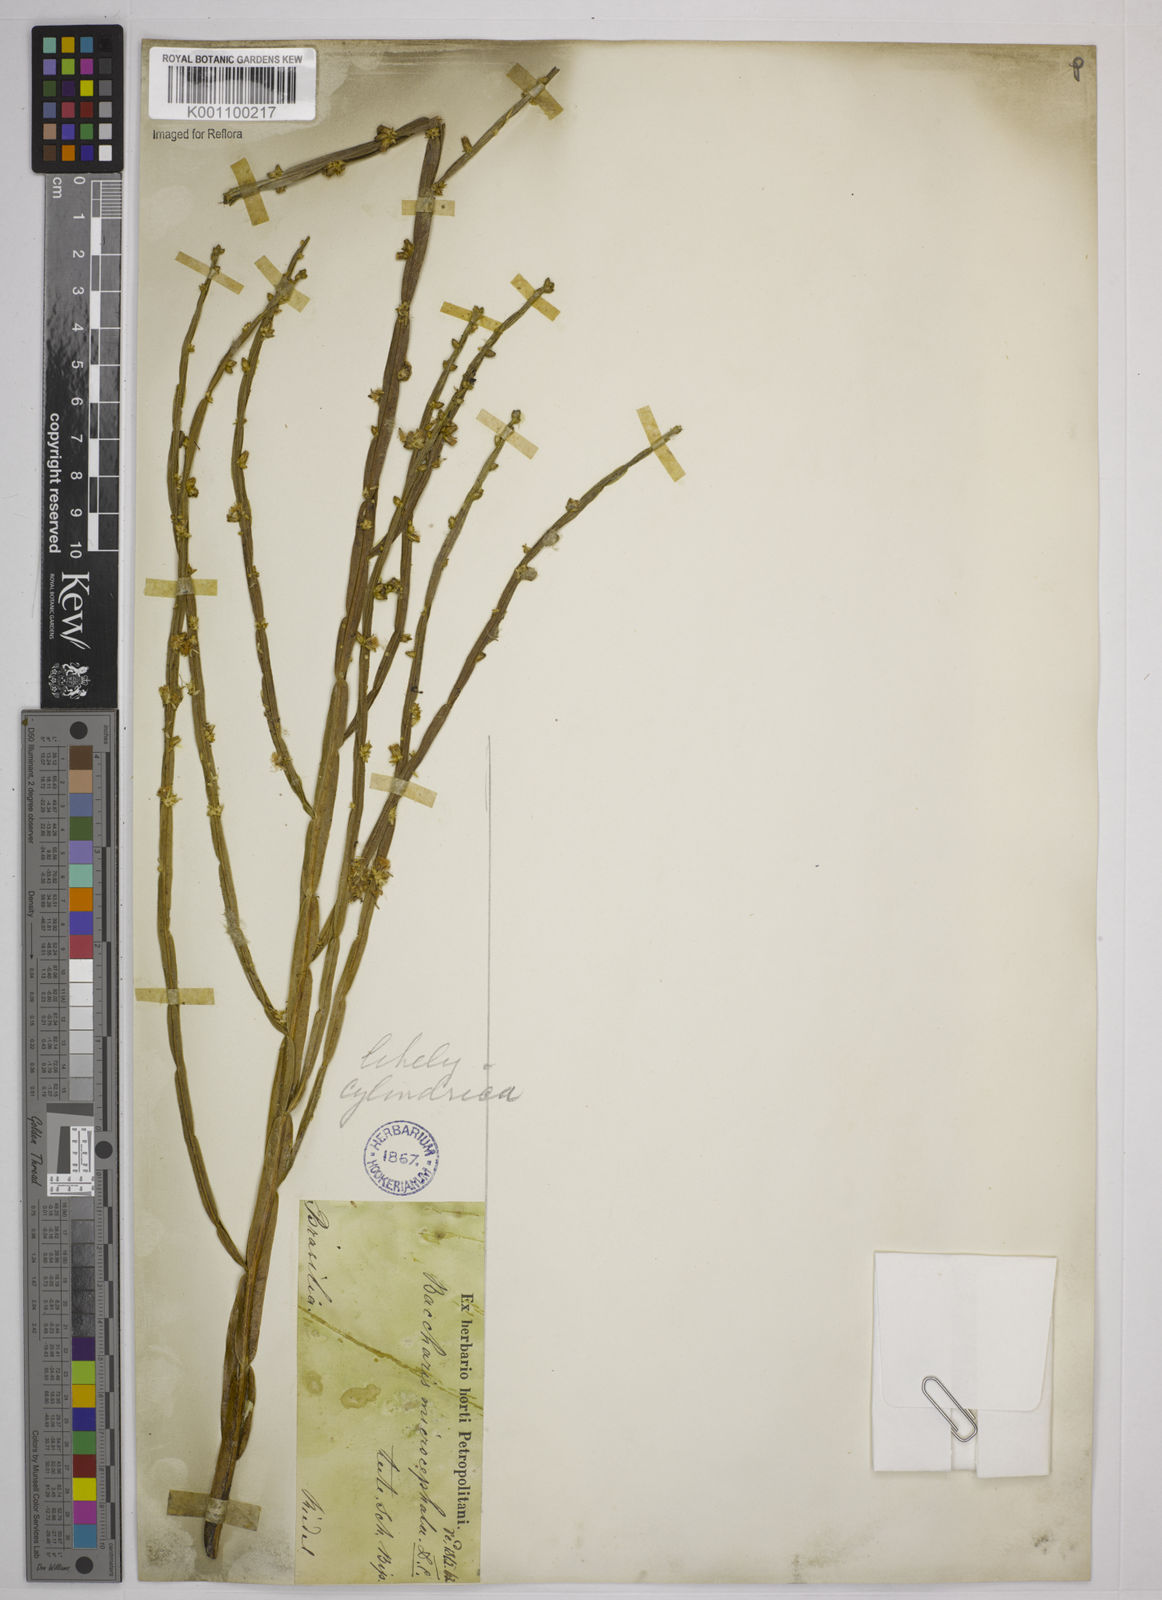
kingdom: Plantae
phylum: Tracheophyta
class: Magnoliopsida
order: Asterales
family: Asteraceae
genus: Baccharis
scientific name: Baccharis
